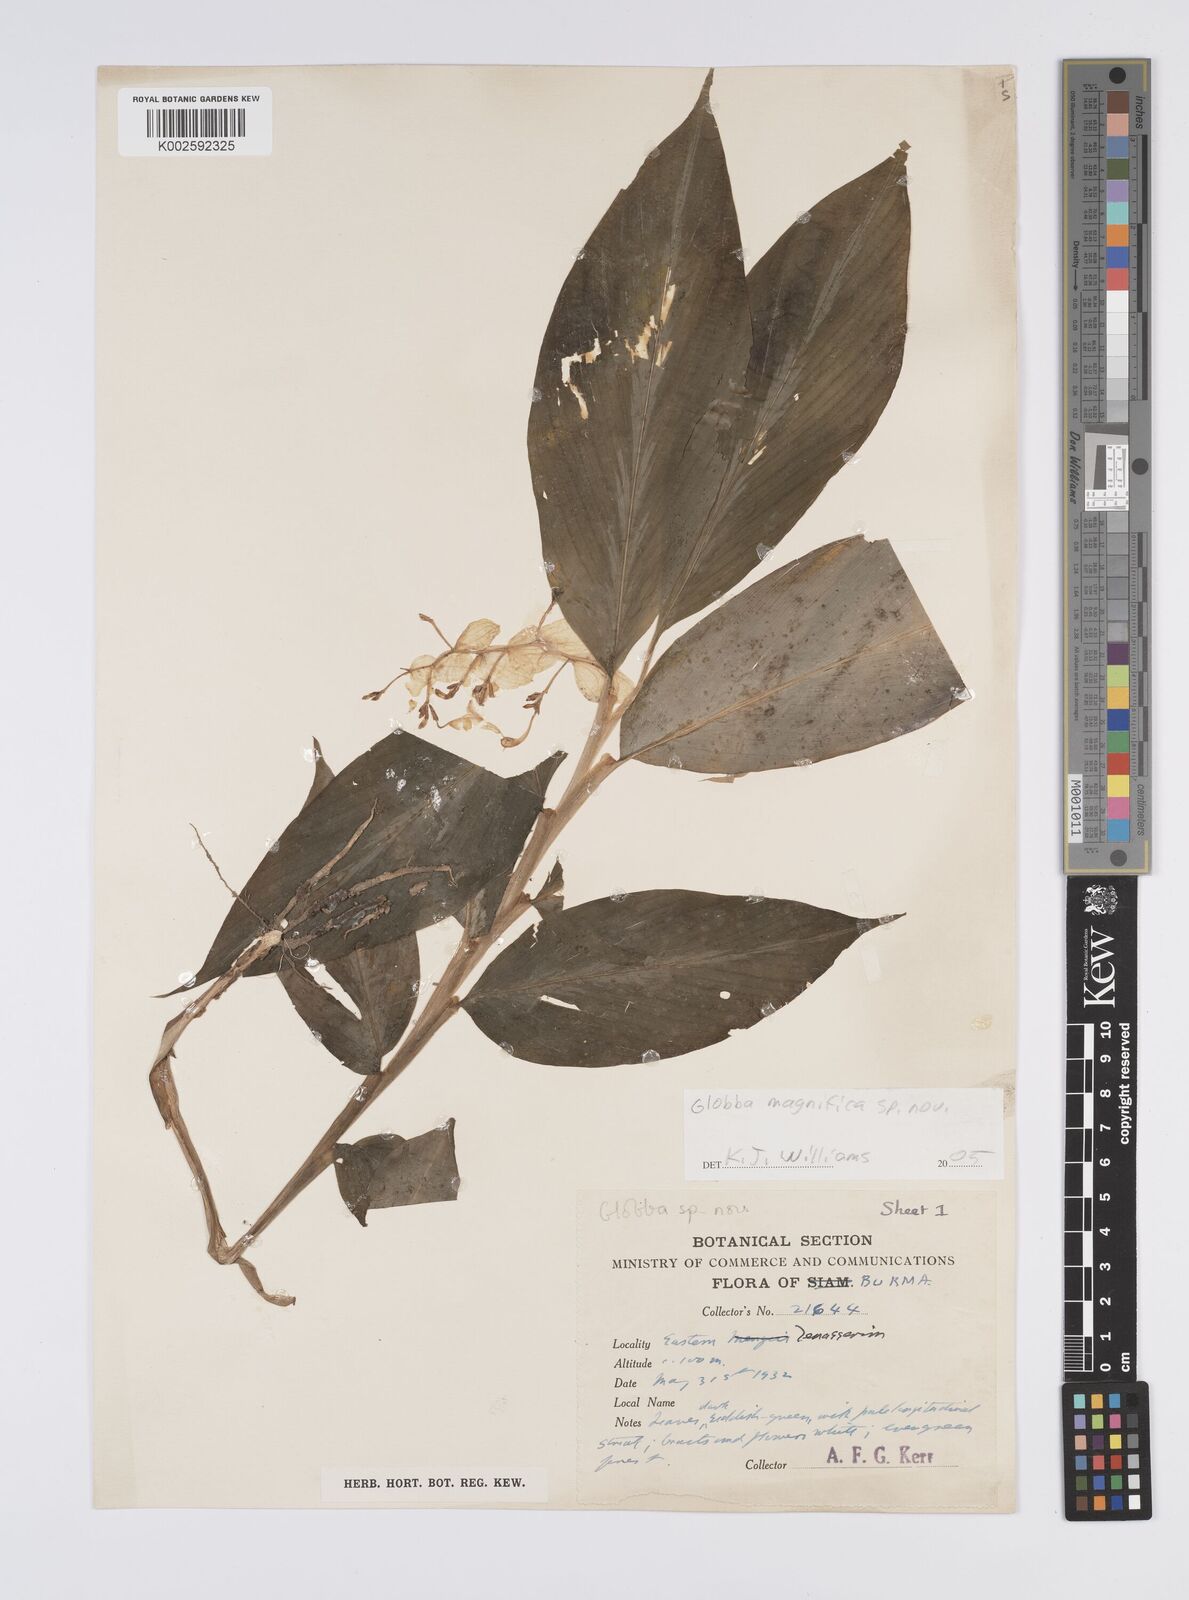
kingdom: Plantae
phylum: Tracheophyta
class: Liliopsida
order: Zingiberales
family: Zingiberaceae
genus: Globba
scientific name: Globba
